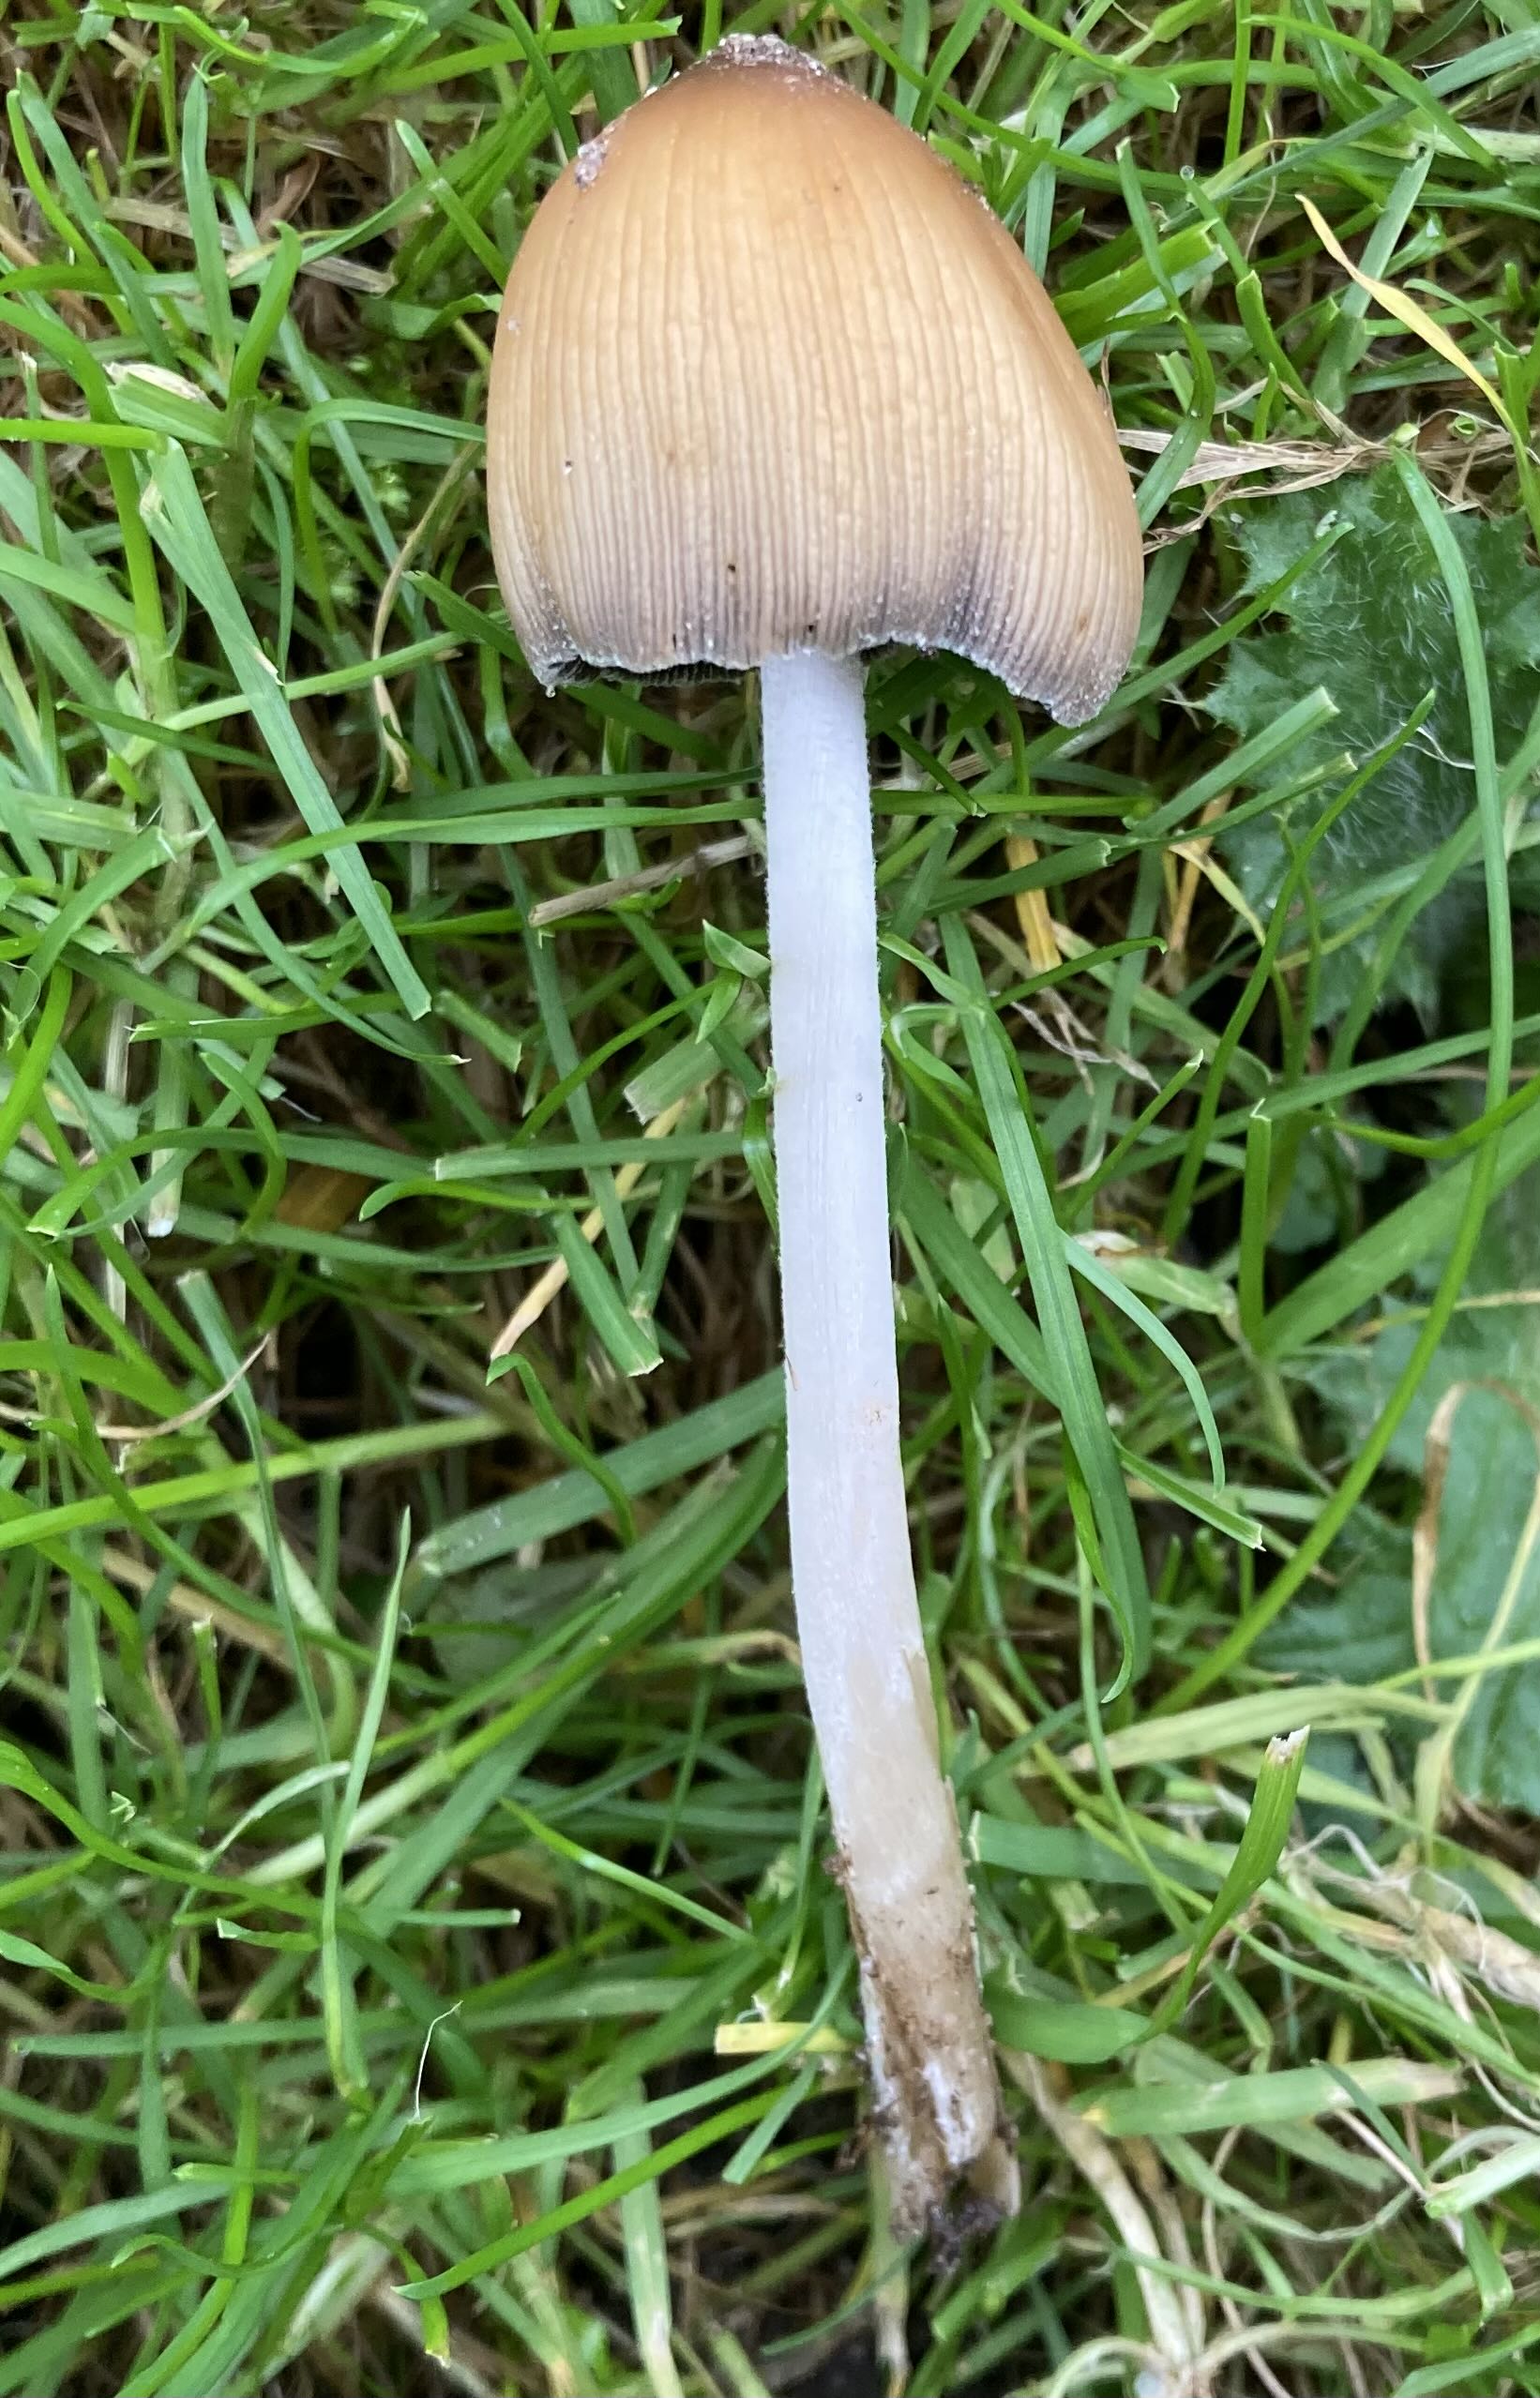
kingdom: Fungi
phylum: Basidiomycota
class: Agaricomycetes
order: Agaricales
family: Psathyrellaceae
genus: Coprinellus
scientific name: Coprinellus micaceus
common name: glimmer-blækhat
